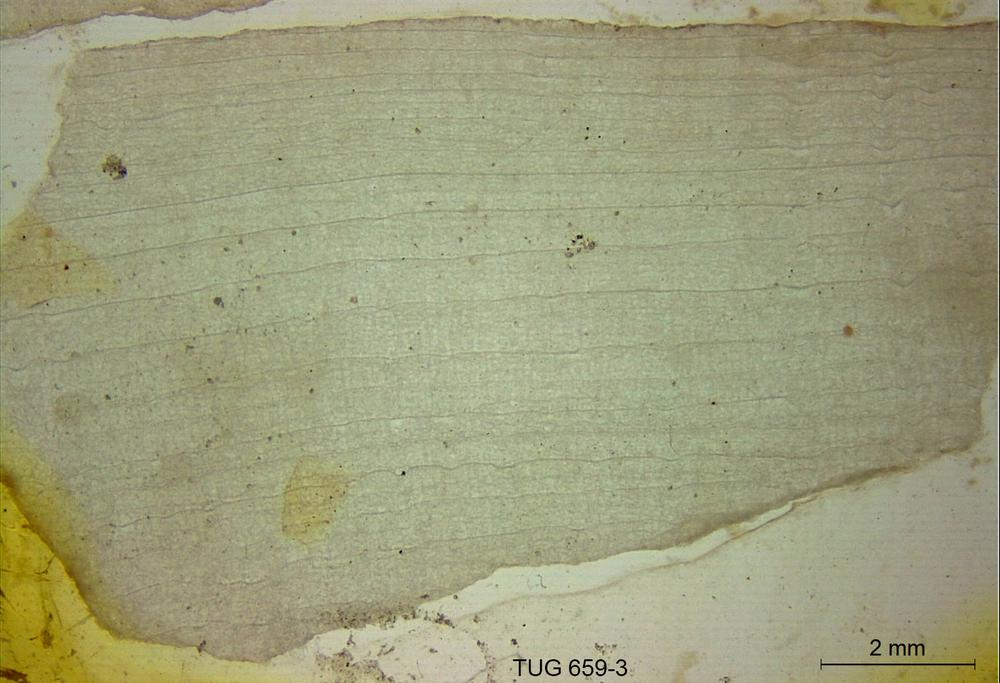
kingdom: Animalia
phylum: Porifera
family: Stromatoporidae
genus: Stromatopora
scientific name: Stromatopora
